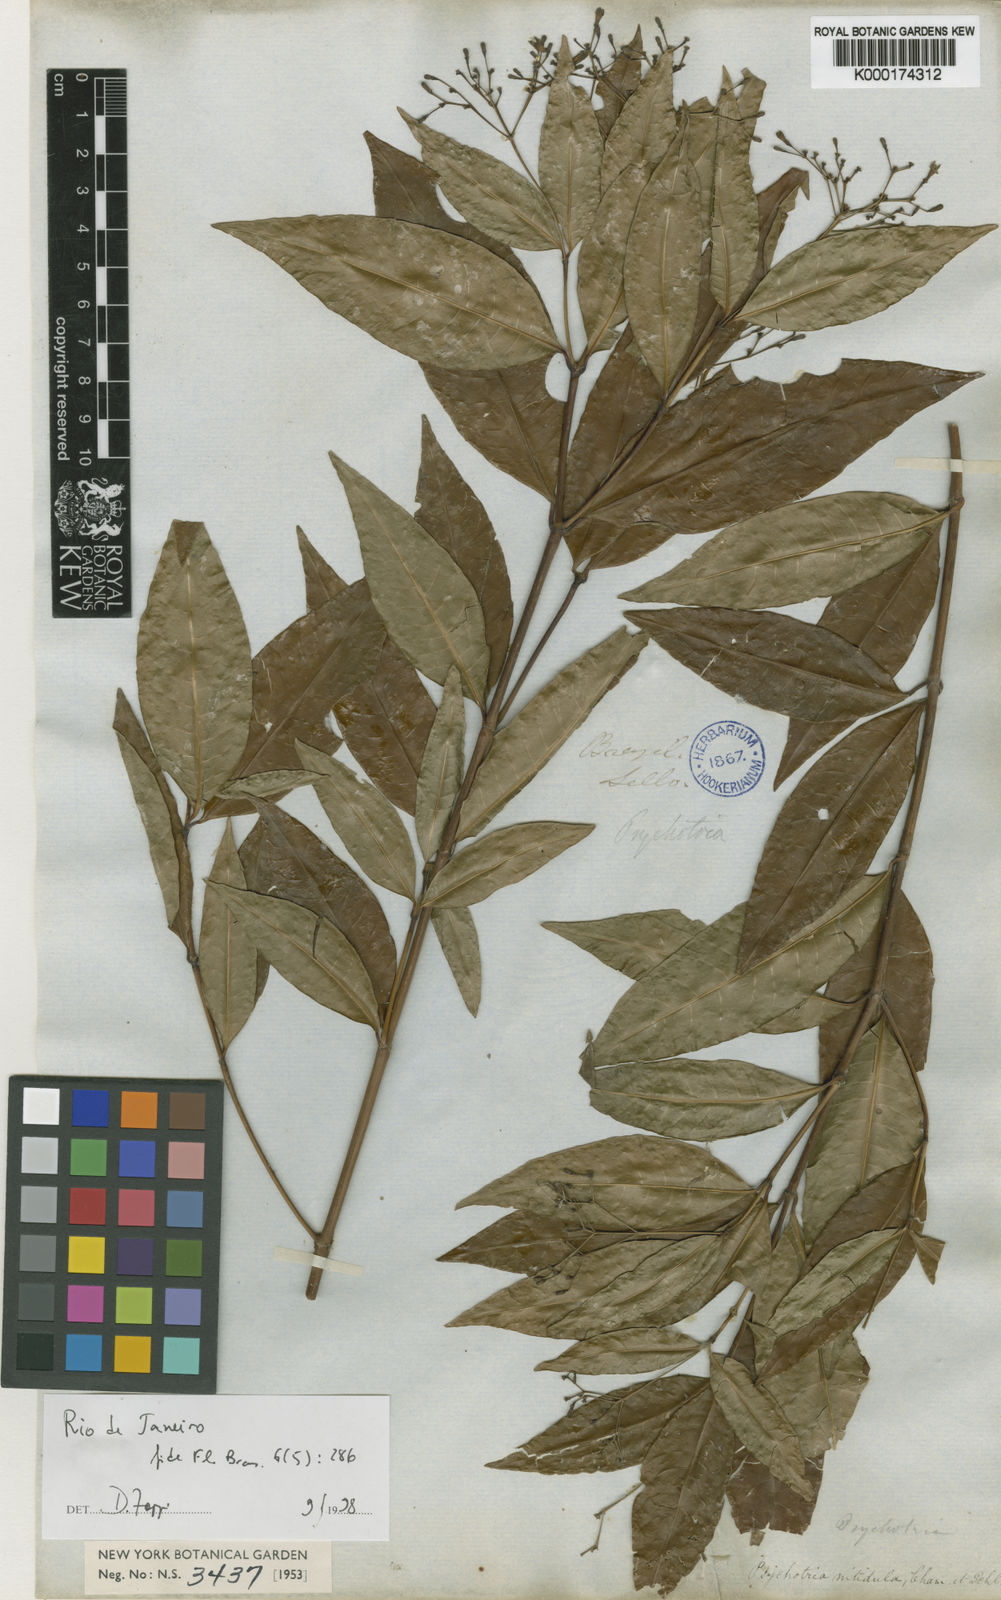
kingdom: Plantae
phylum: Tracheophyta
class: Magnoliopsida
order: Gentianales
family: Rubiaceae
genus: Psychotria
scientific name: Psychotria leiocarpa
